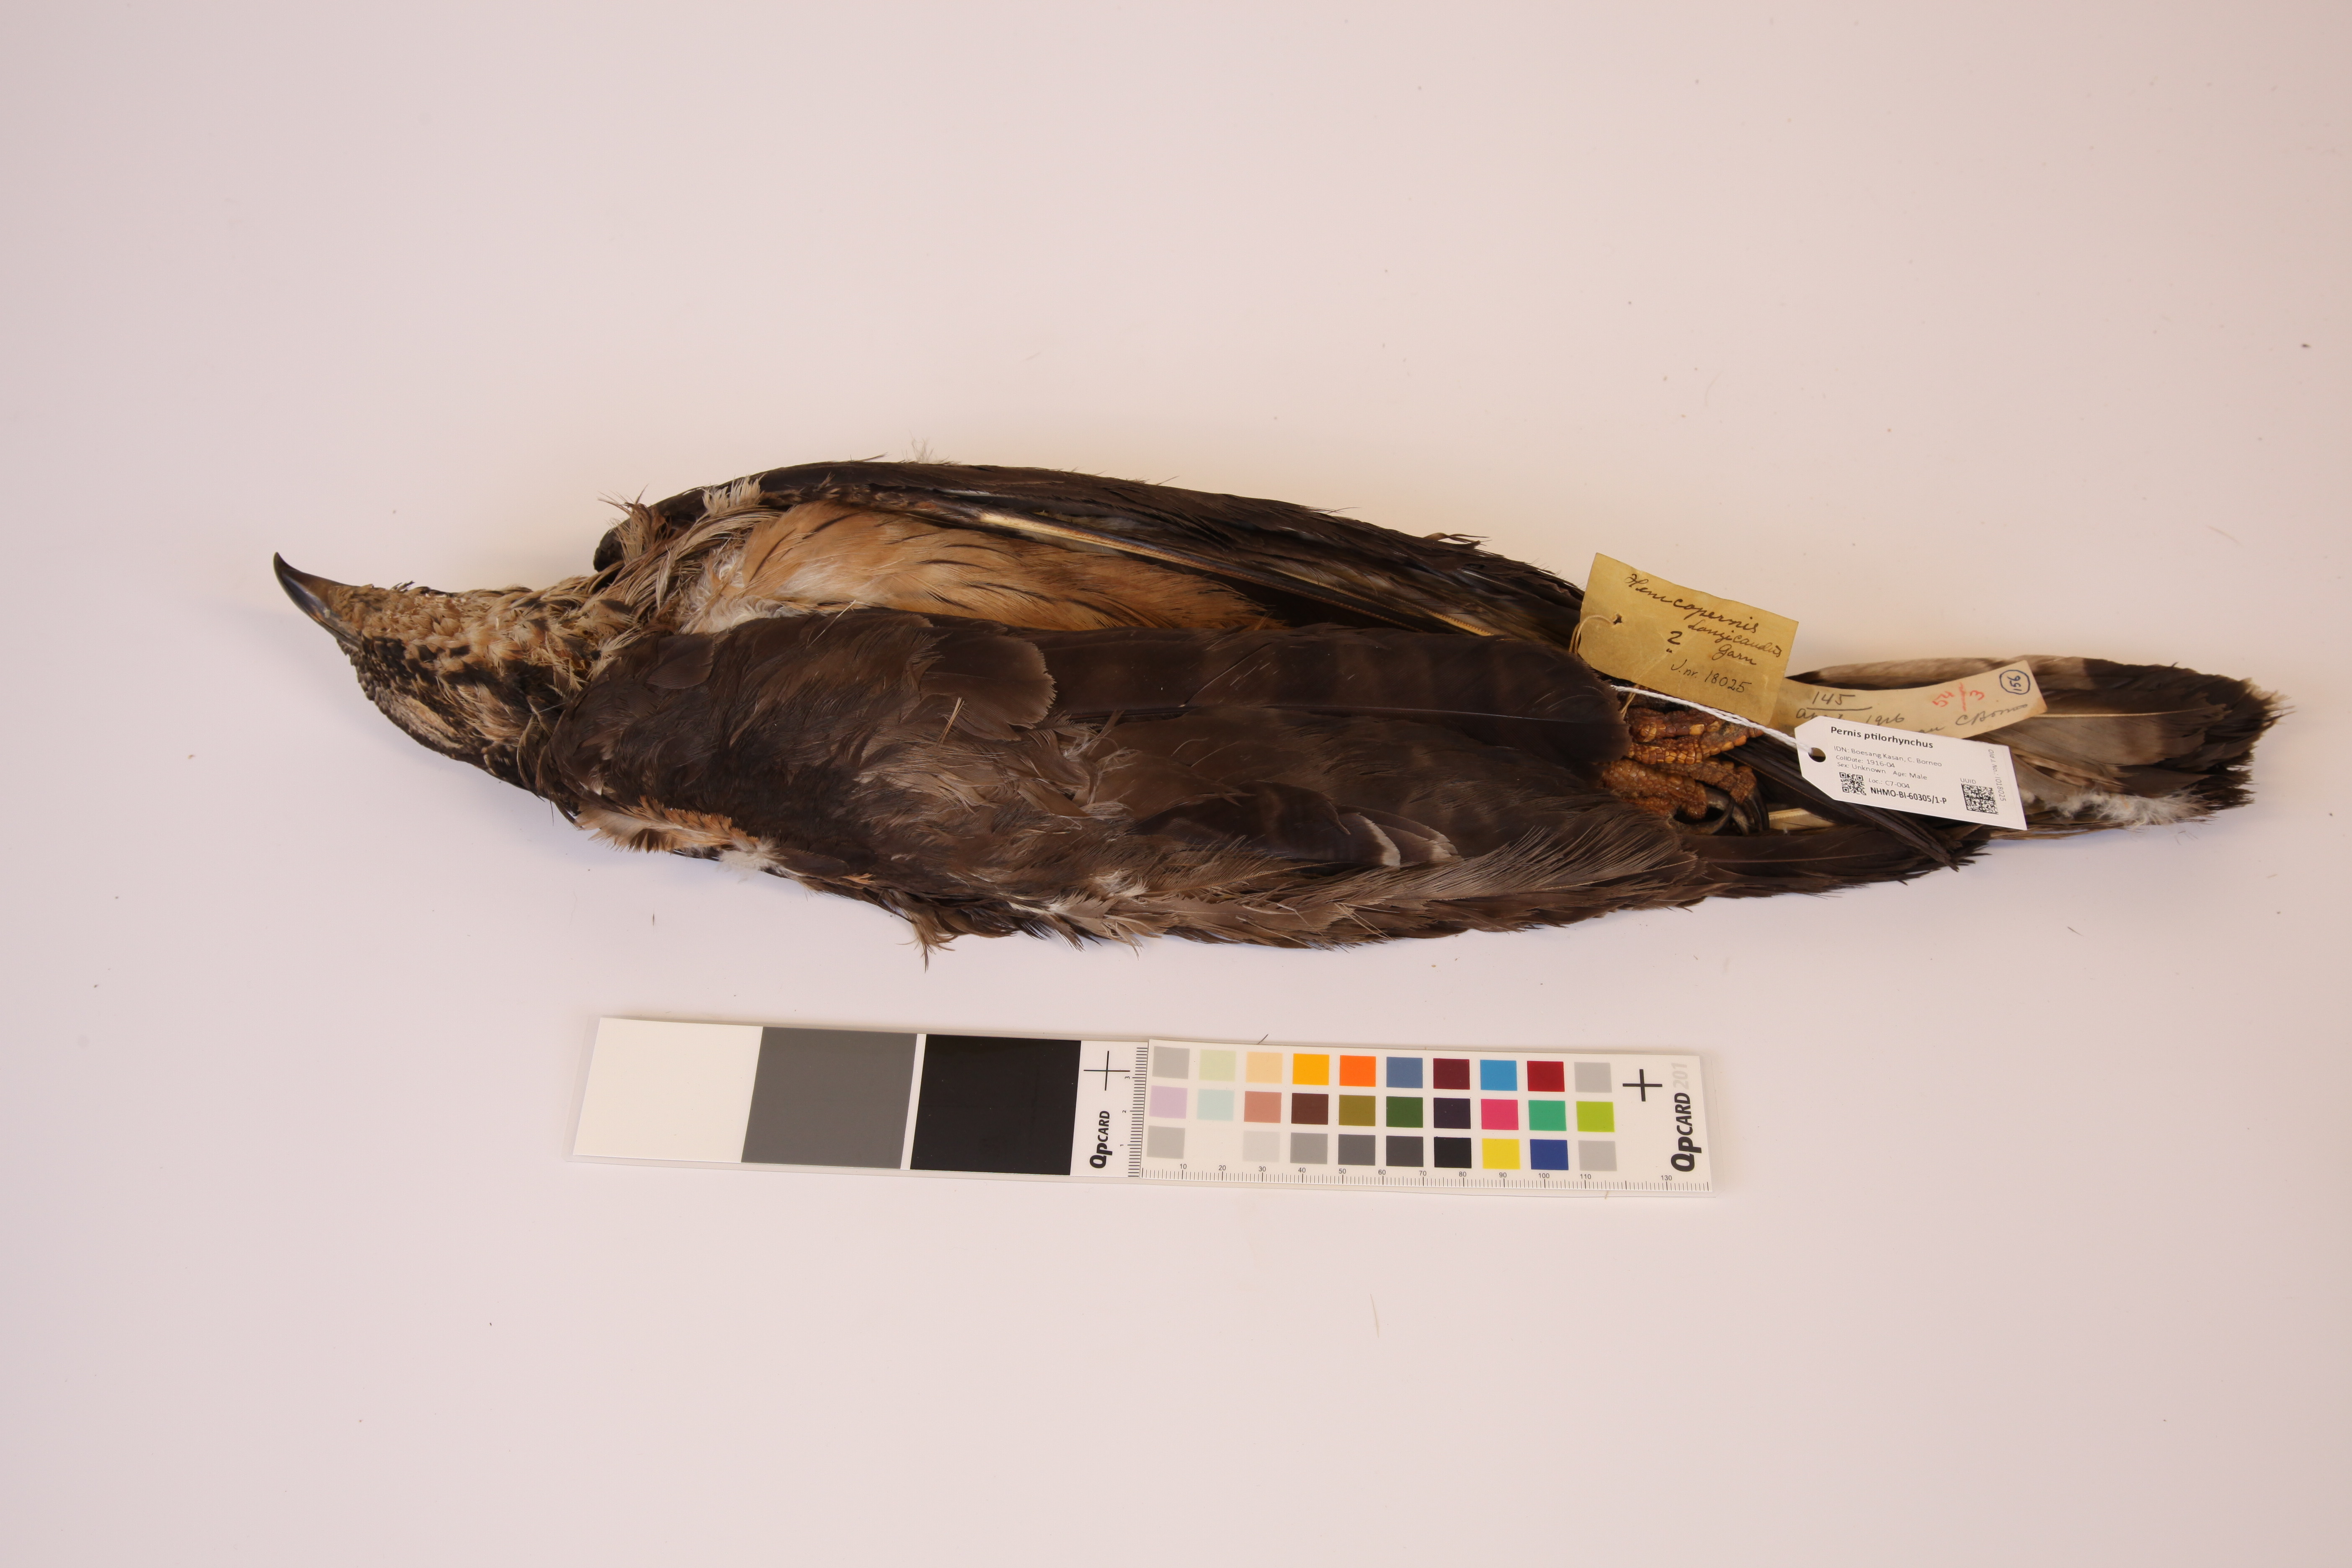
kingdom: Animalia
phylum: Chordata
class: Aves
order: Accipitriformes
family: Accipitridae
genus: Pernis
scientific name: Pernis ptilorhynchus
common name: Crested honey buzzard
